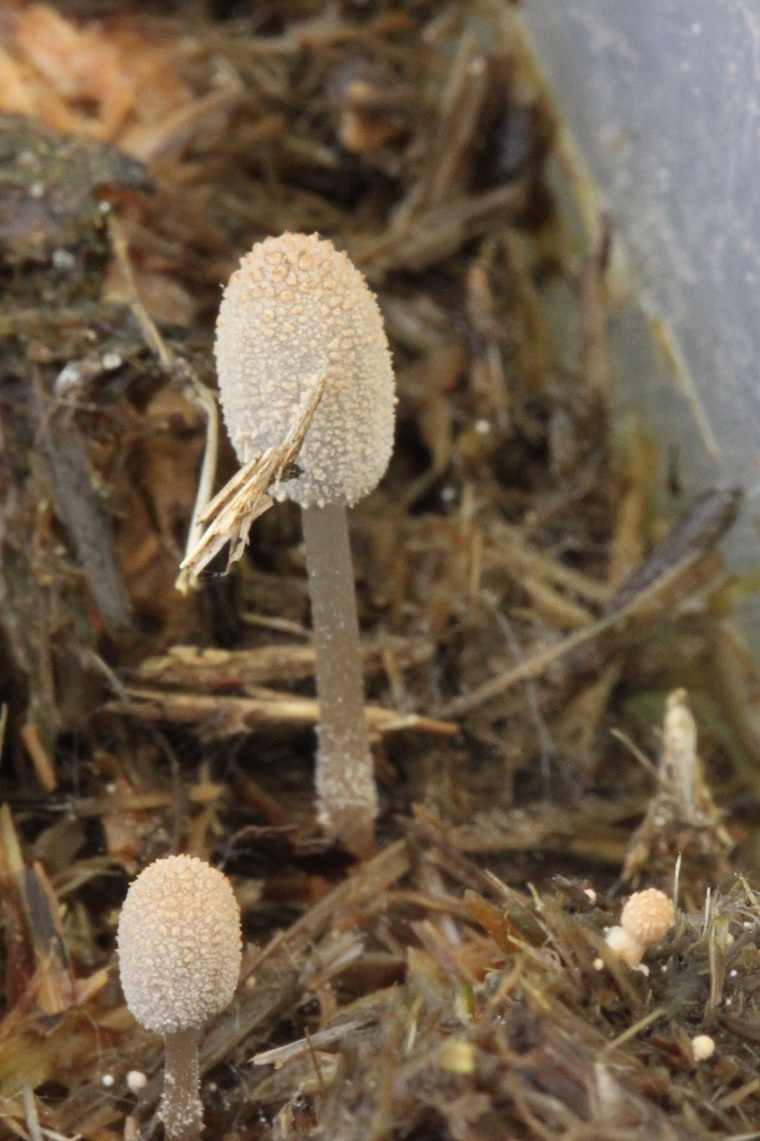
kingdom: Fungi
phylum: Basidiomycota
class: Agaricomycetes
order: Agaricales
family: Psathyrellaceae
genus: Narcissea
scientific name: Narcissea ephemeroides
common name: ring-blækhat
